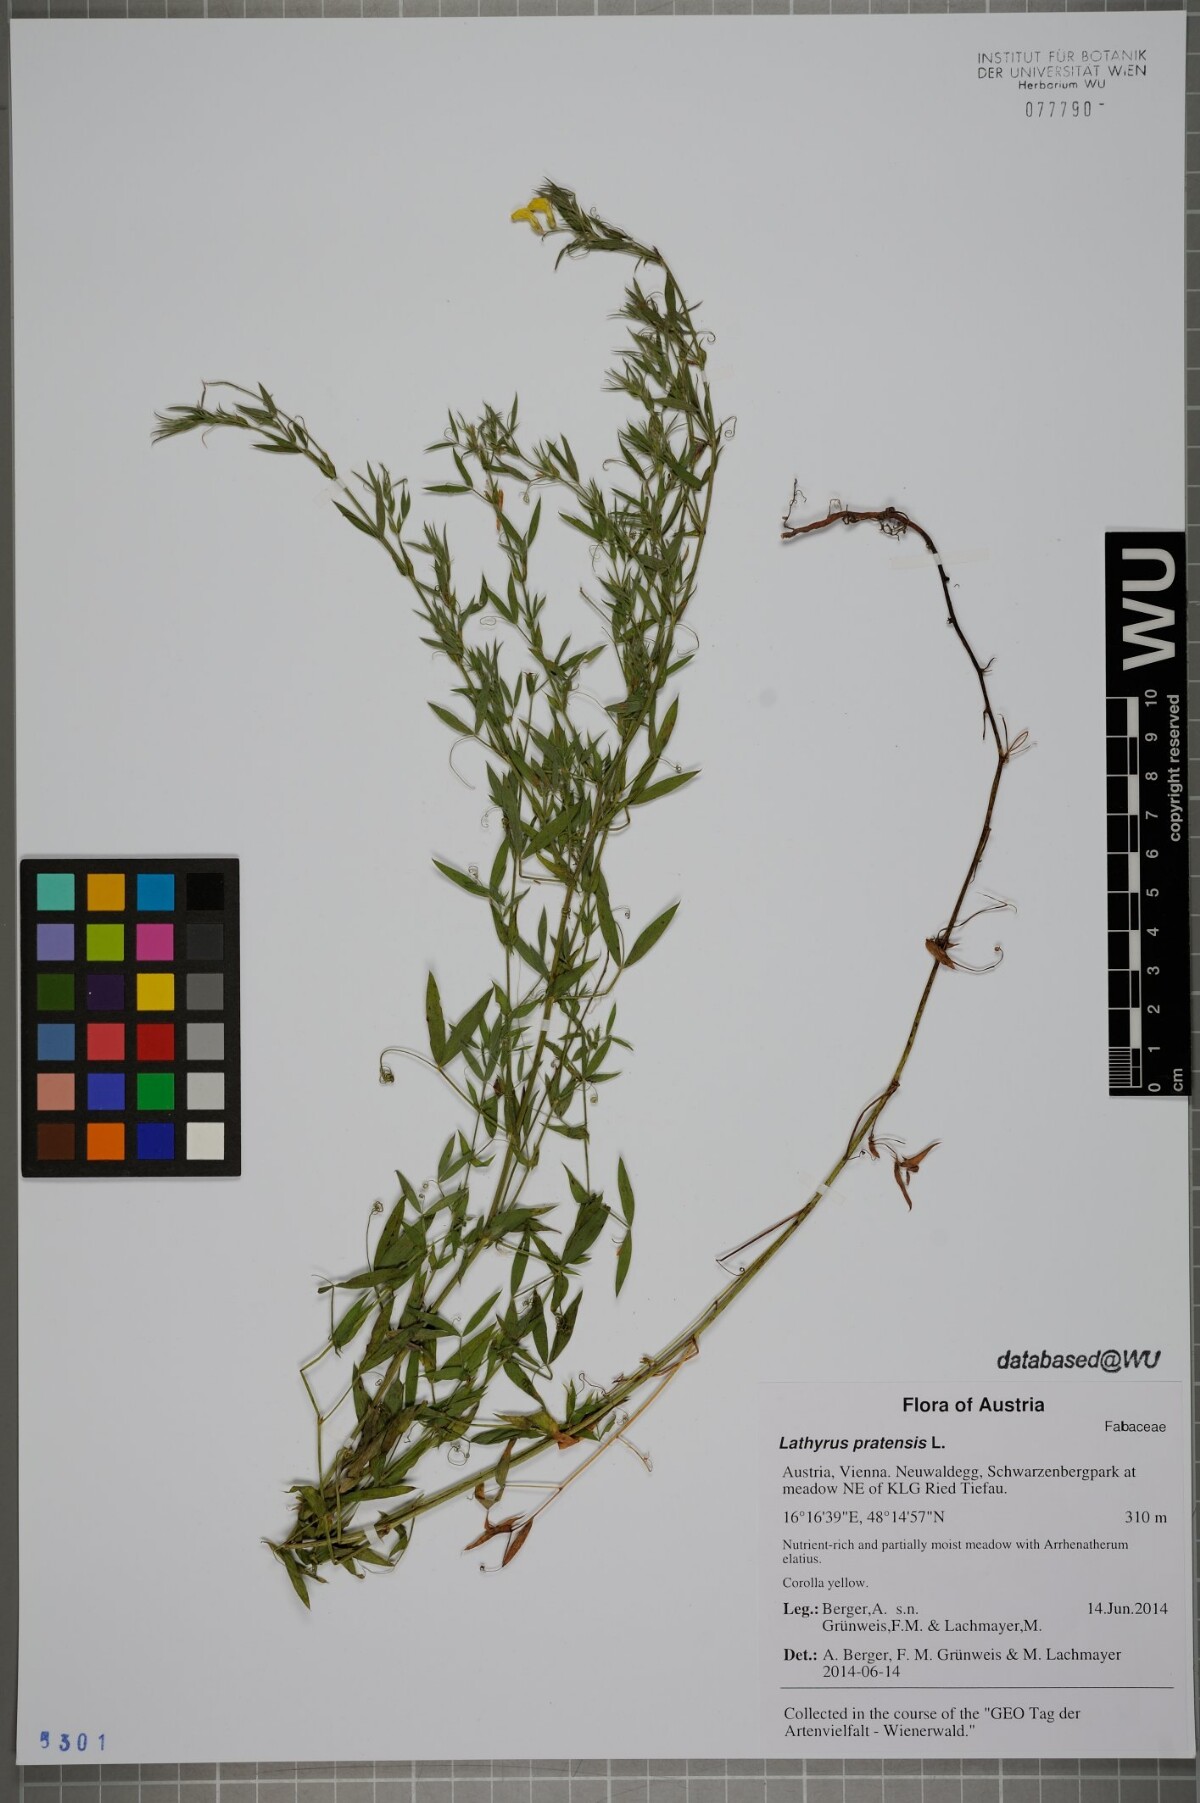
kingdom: Plantae
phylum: Tracheophyta
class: Magnoliopsida
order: Fabales
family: Fabaceae
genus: Lathyrus
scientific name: Lathyrus pratensis
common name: Meadow vetchling
